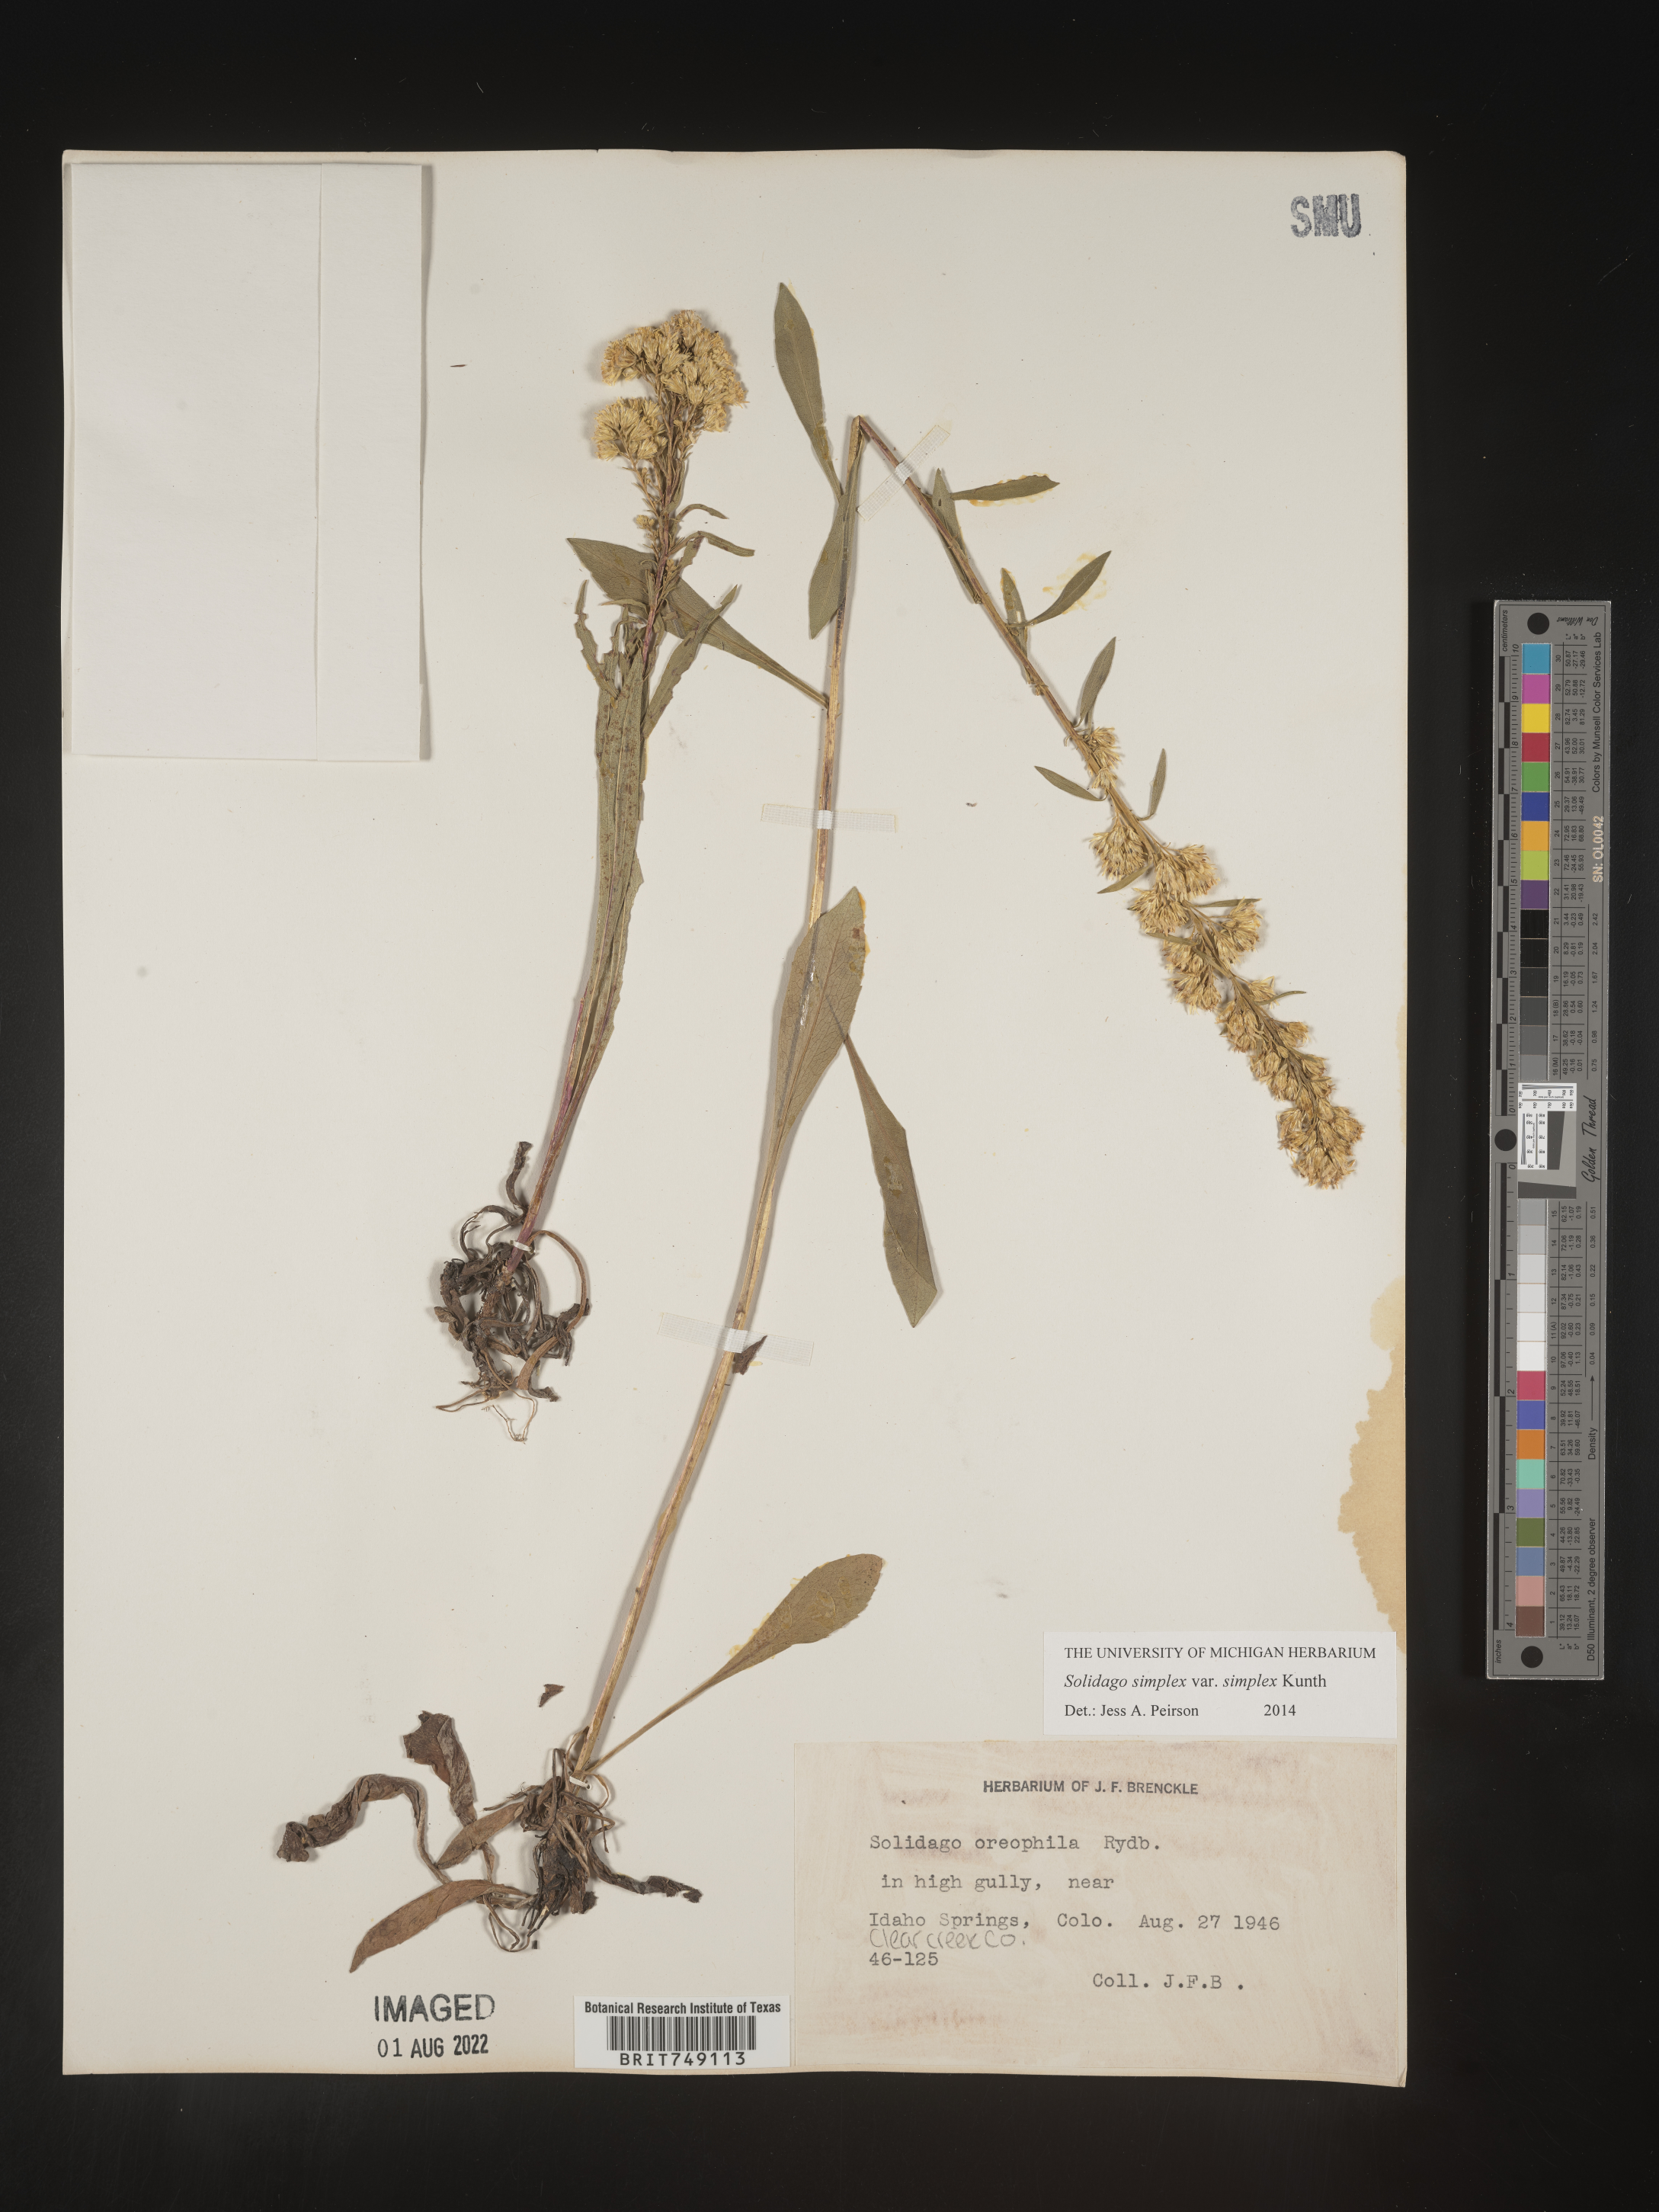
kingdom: Plantae
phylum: Tracheophyta
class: Magnoliopsida
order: Asterales
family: Asteraceae
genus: Solidago
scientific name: Solidago simplex
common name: Sticky goldenrod
